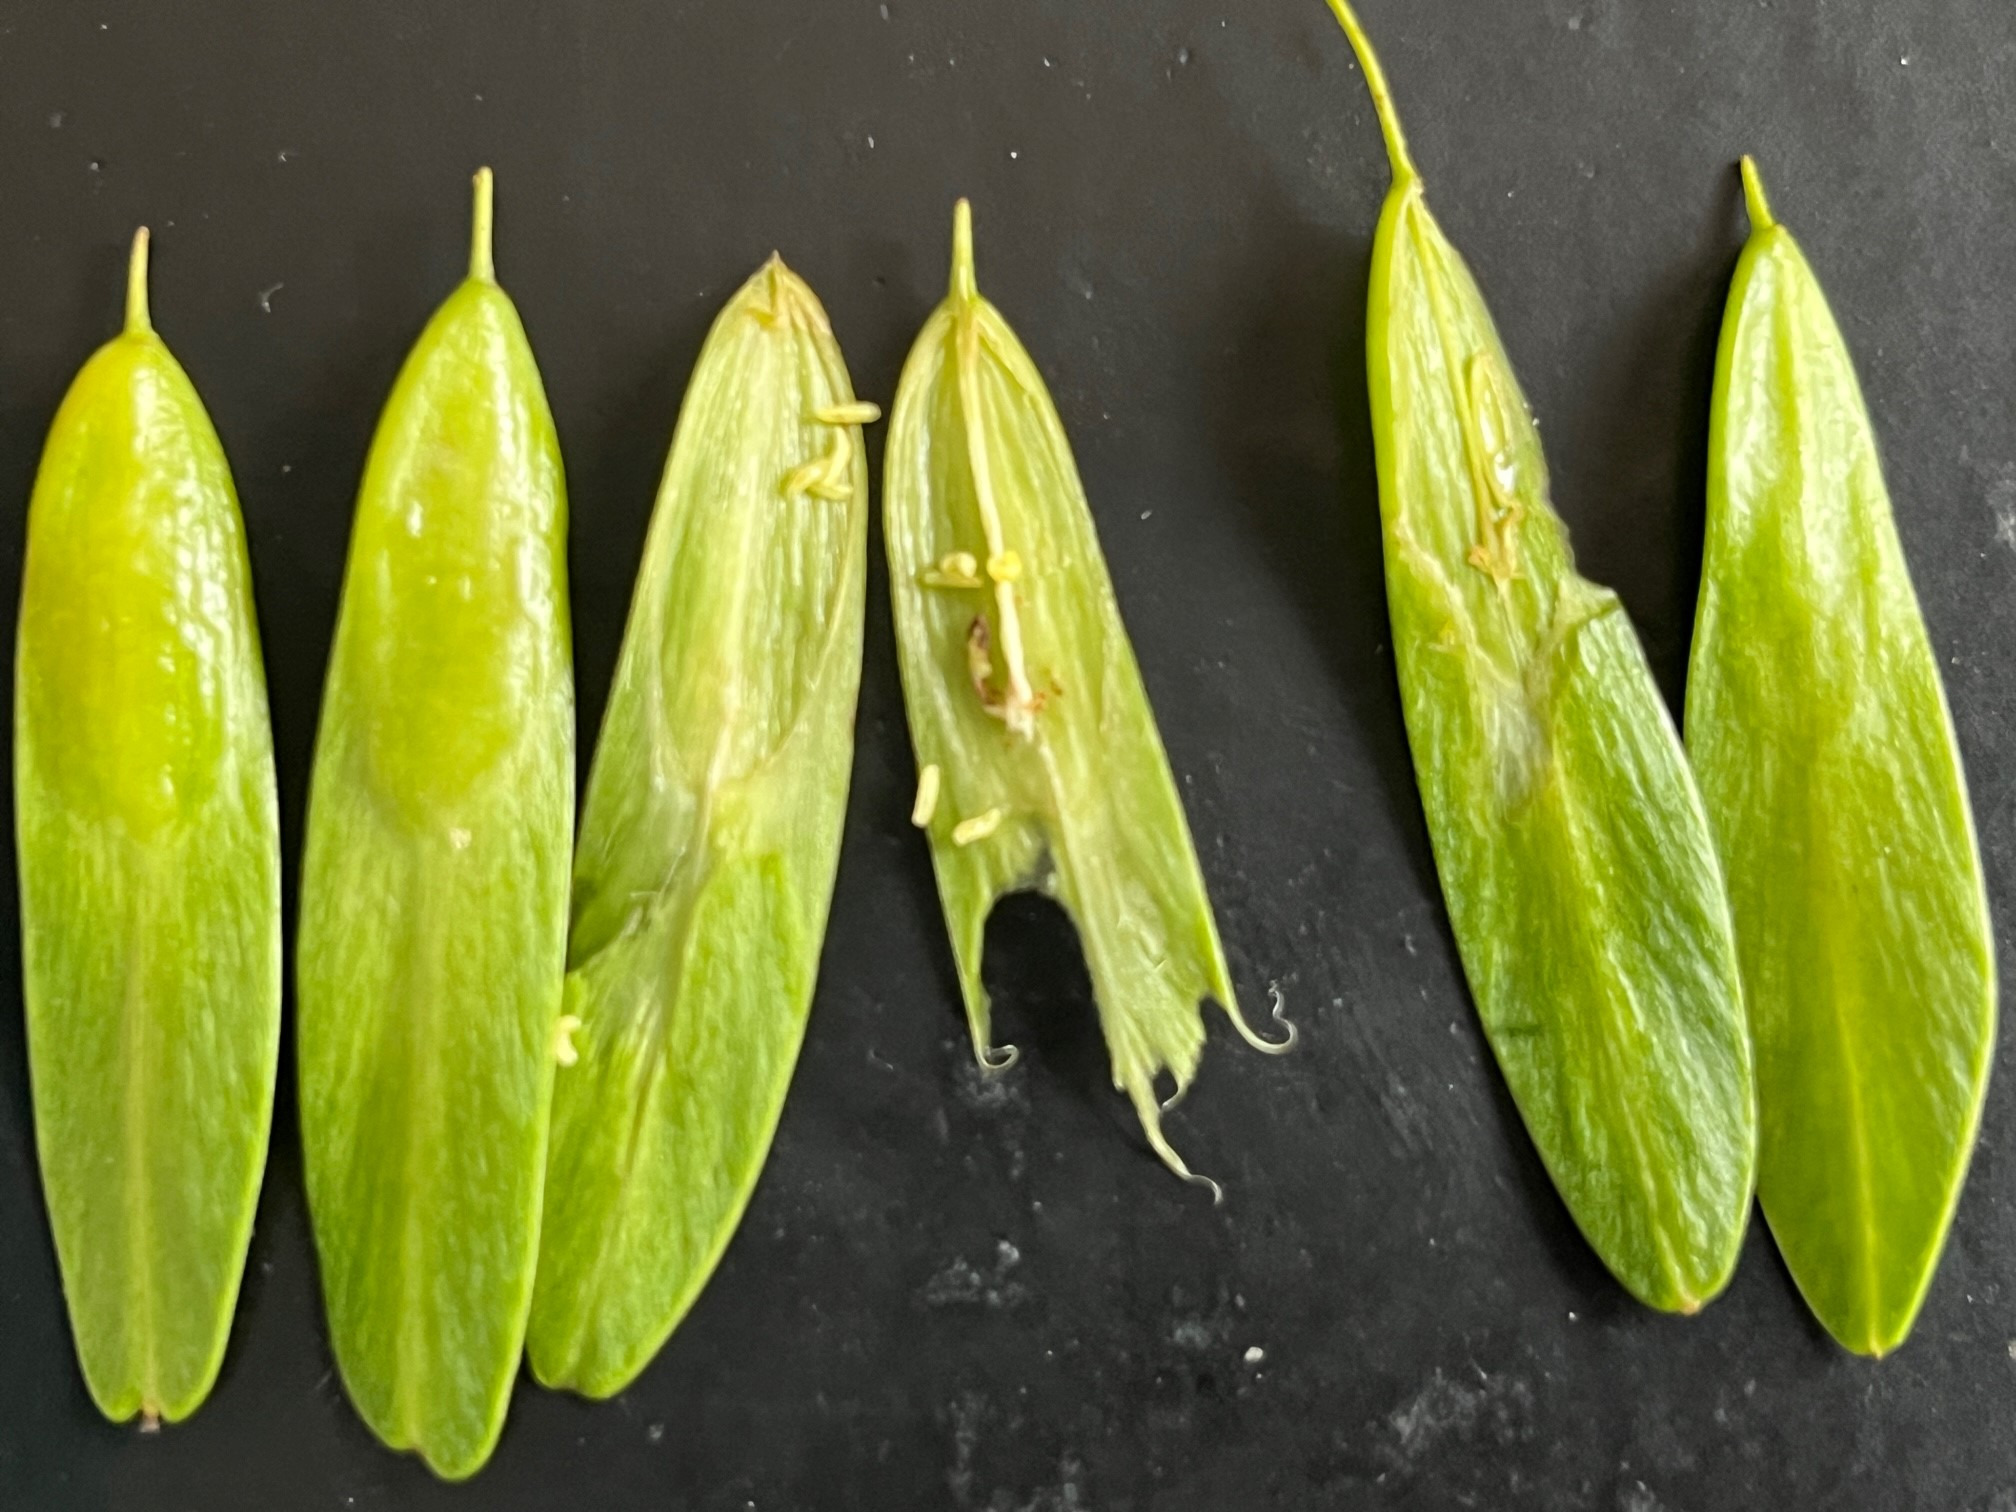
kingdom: Animalia
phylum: Arthropoda
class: Insecta
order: Diptera
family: Cecidomyiidae
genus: Contarinia
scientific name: Contarinia marchali
